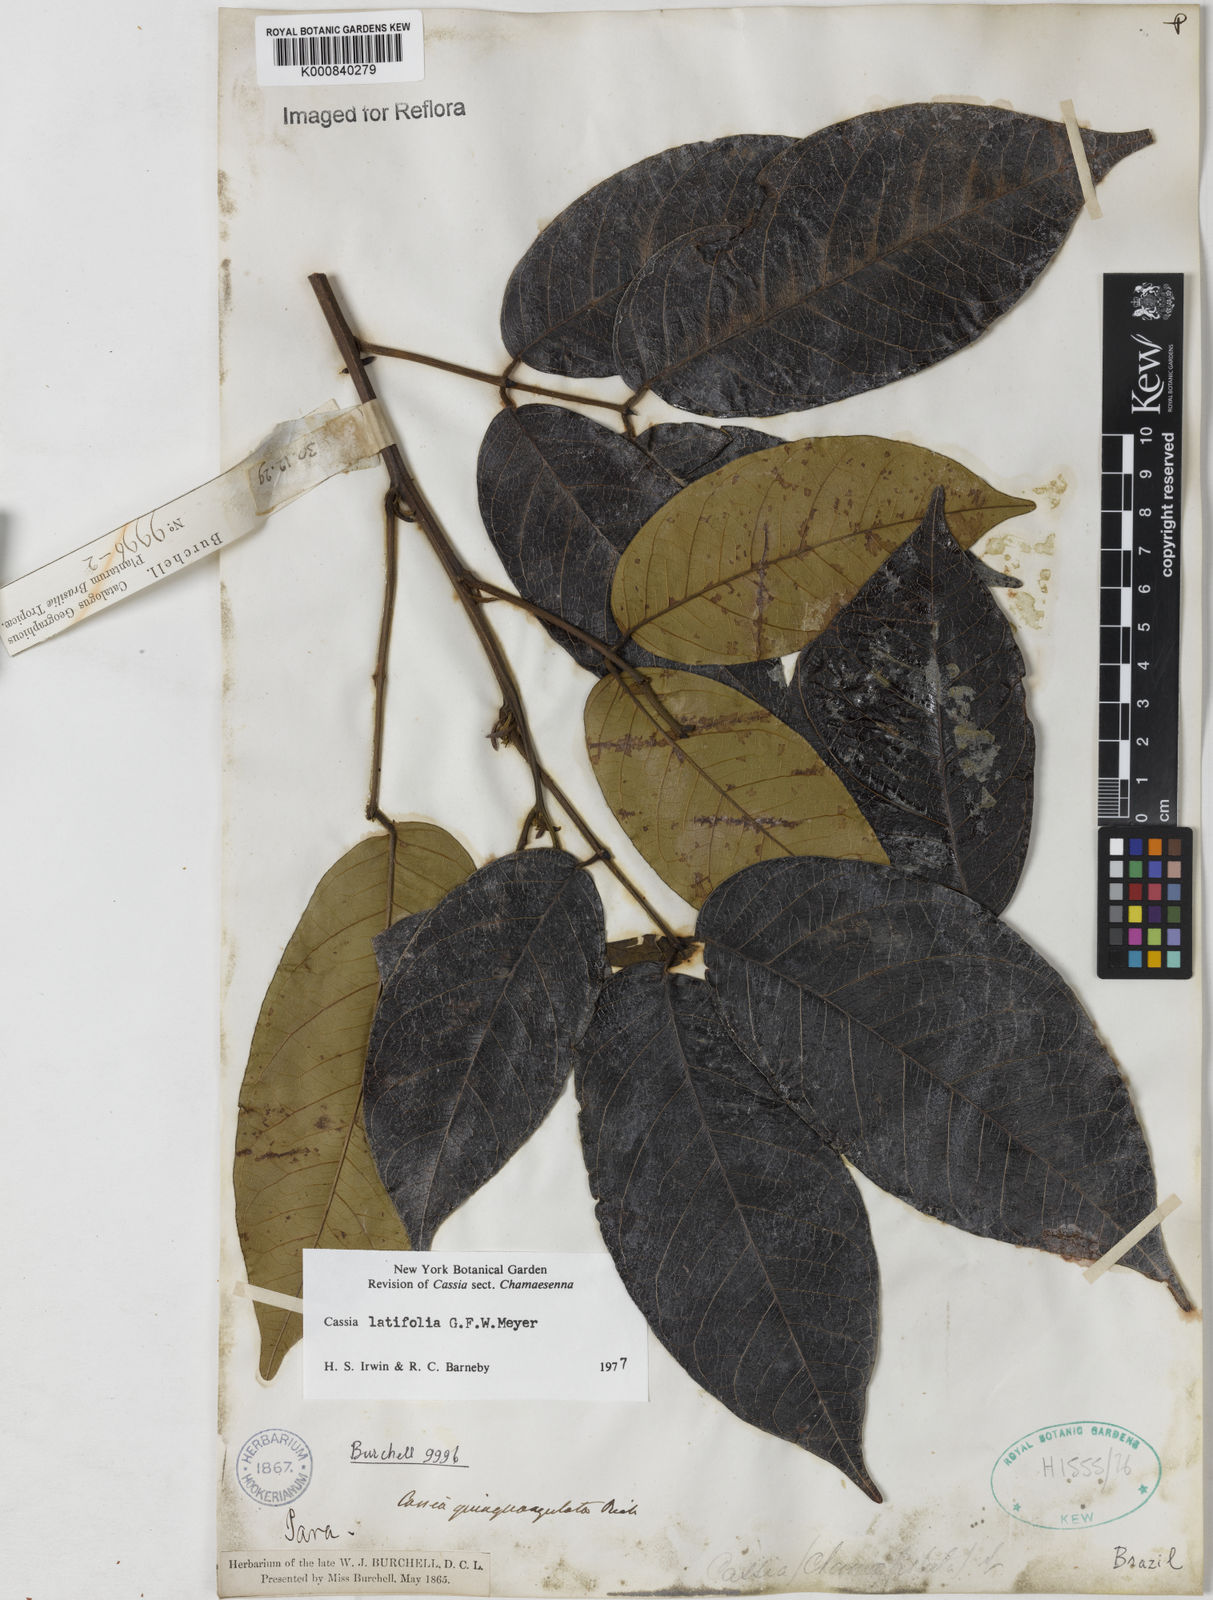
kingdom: Plantae
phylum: Tracheophyta
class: Magnoliopsida
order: Fabales
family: Fabaceae
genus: Senna
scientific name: Senna latifolia
